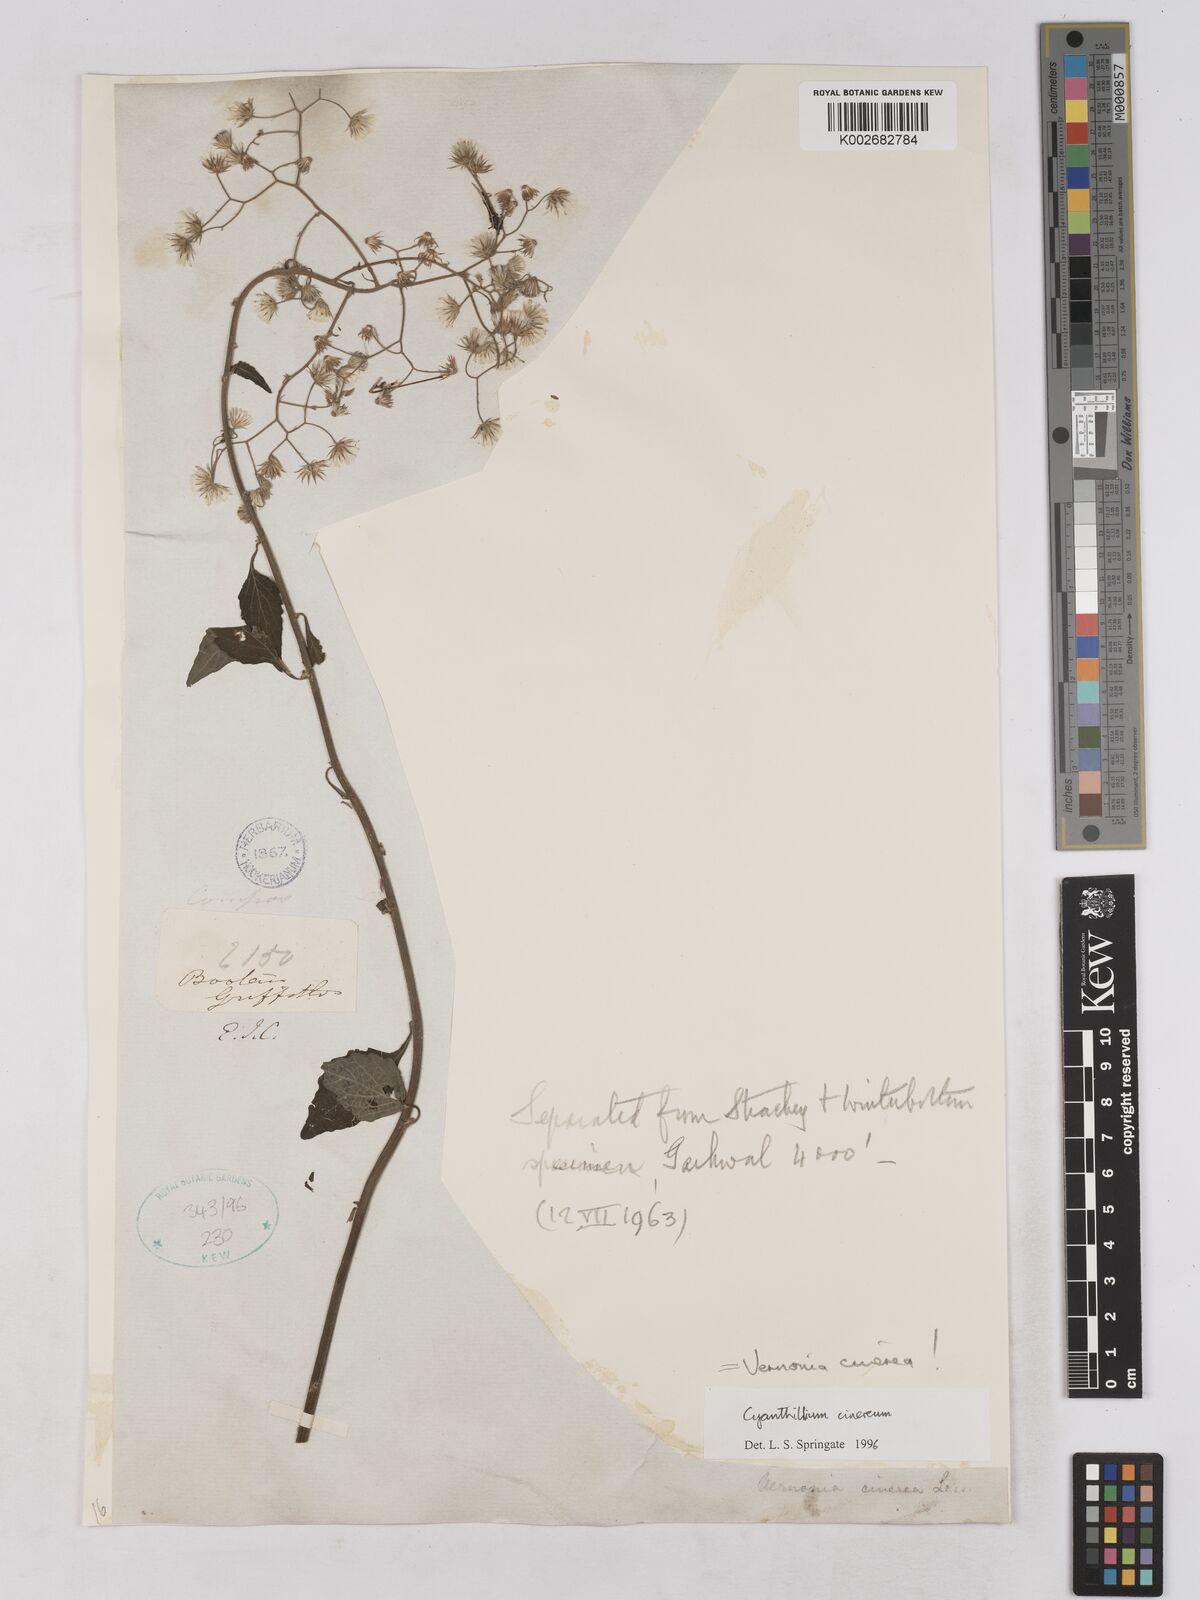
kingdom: Plantae
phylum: Tracheophyta
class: Magnoliopsida
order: Asterales
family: Asteraceae
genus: Cyanthillium
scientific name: Cyanthillium cinereum
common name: Little ironweed
